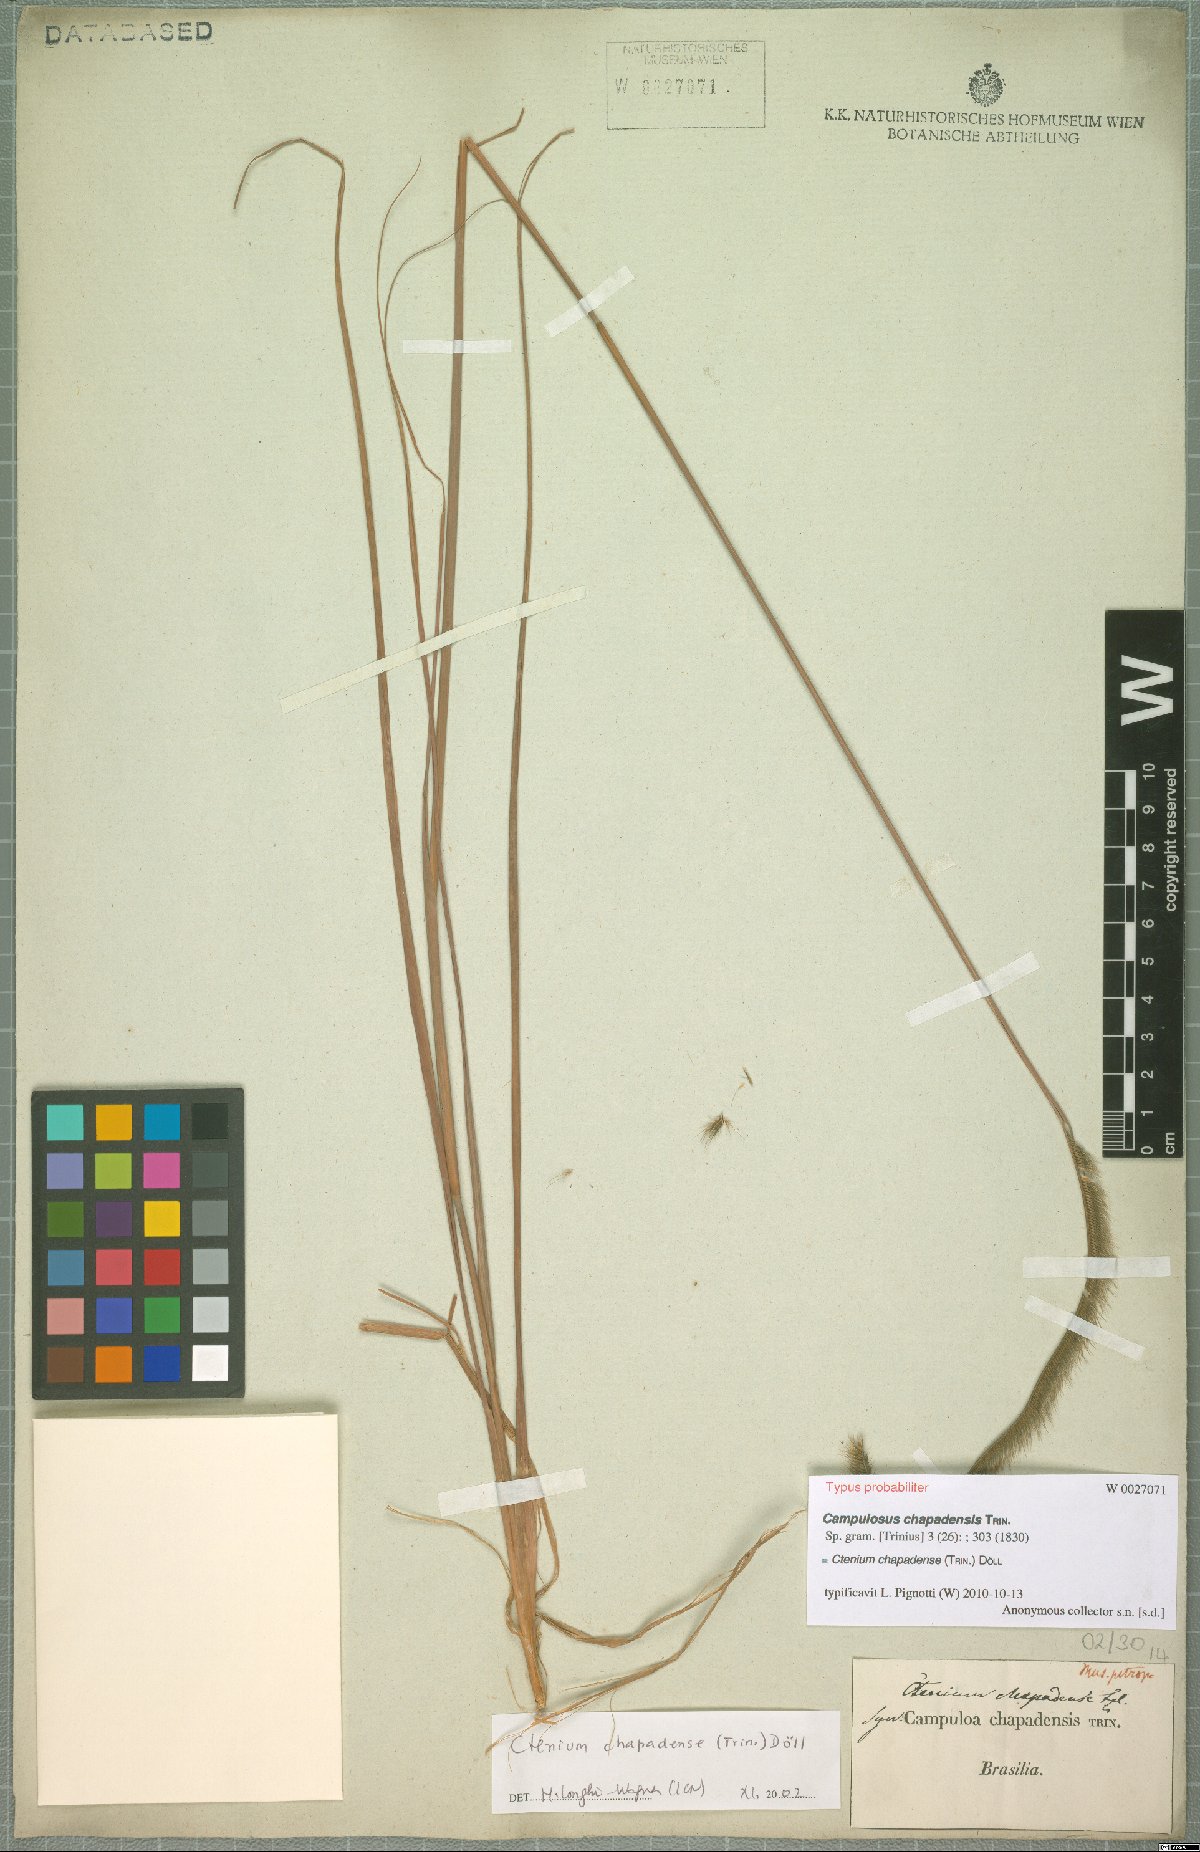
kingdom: Plantae
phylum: Tracheophyta
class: Liliopsida
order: Poales
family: Poaceae
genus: Ctenium
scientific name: Ctenium chapadense
